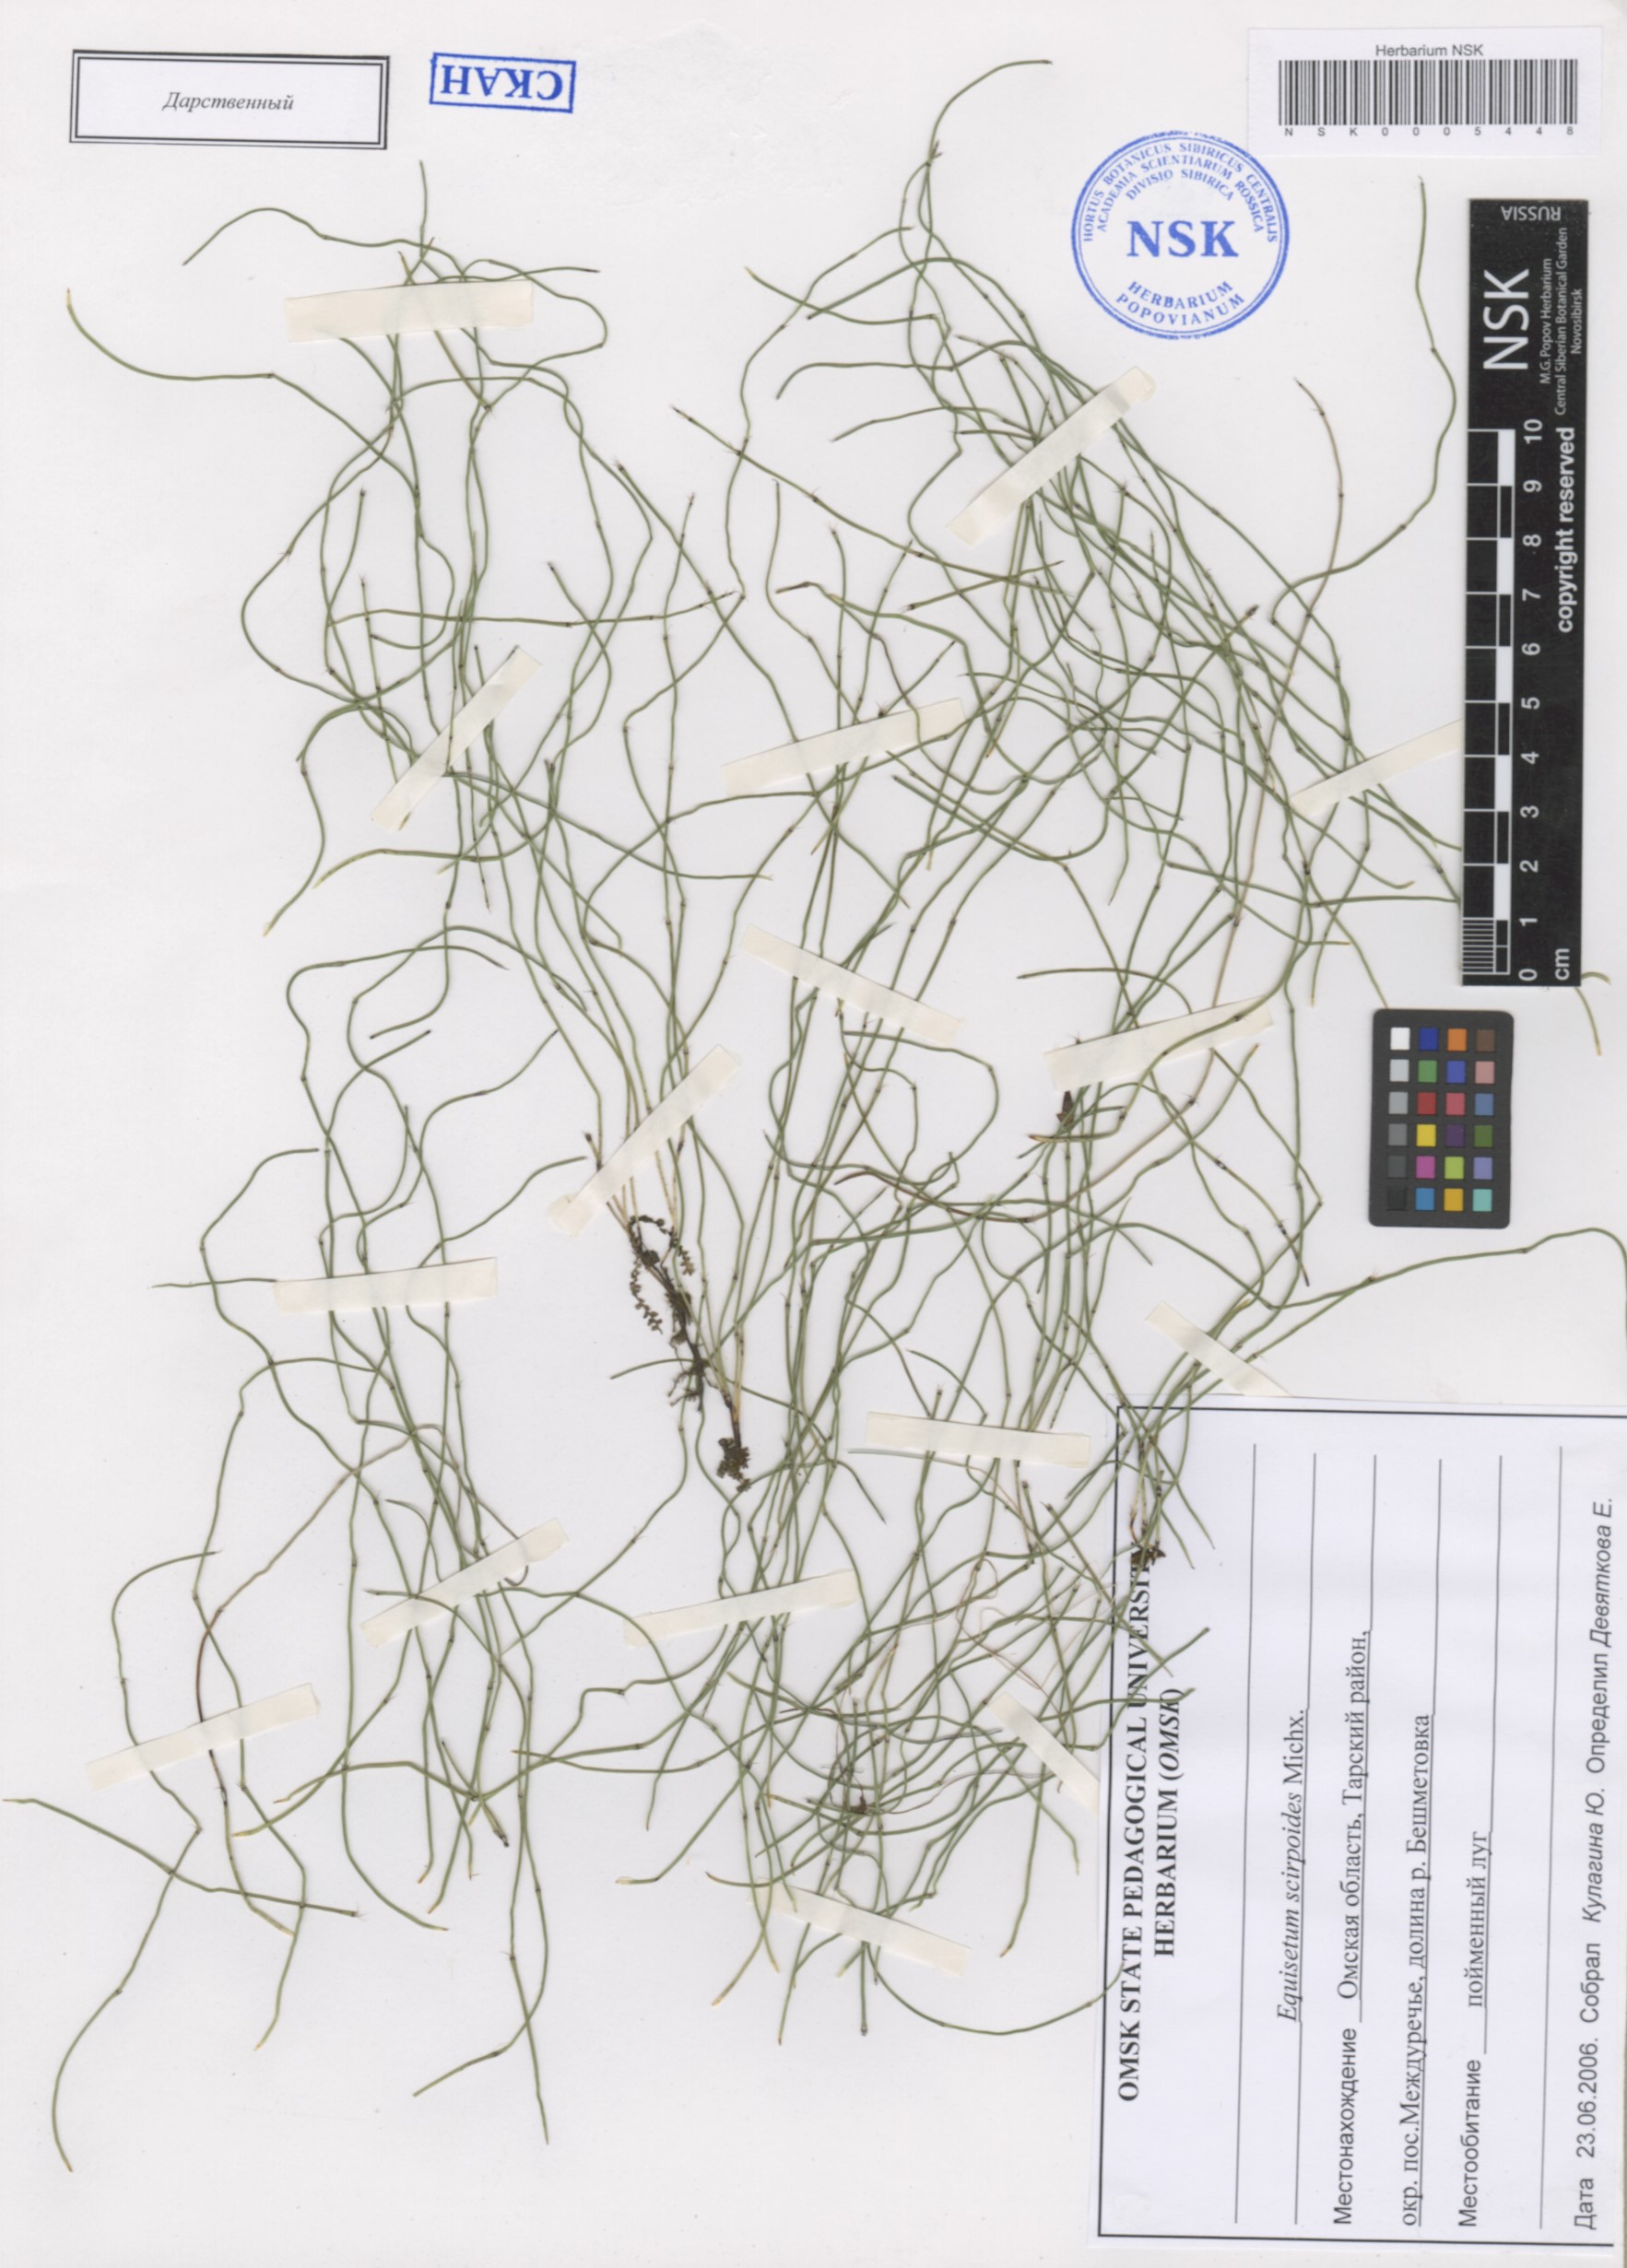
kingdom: Plantae
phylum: Tracheophyta
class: Polypodiopsida
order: Equisetales
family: Equisetaceae
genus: Equisetum
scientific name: Equisetum scirpoides
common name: Delicate horsetail
